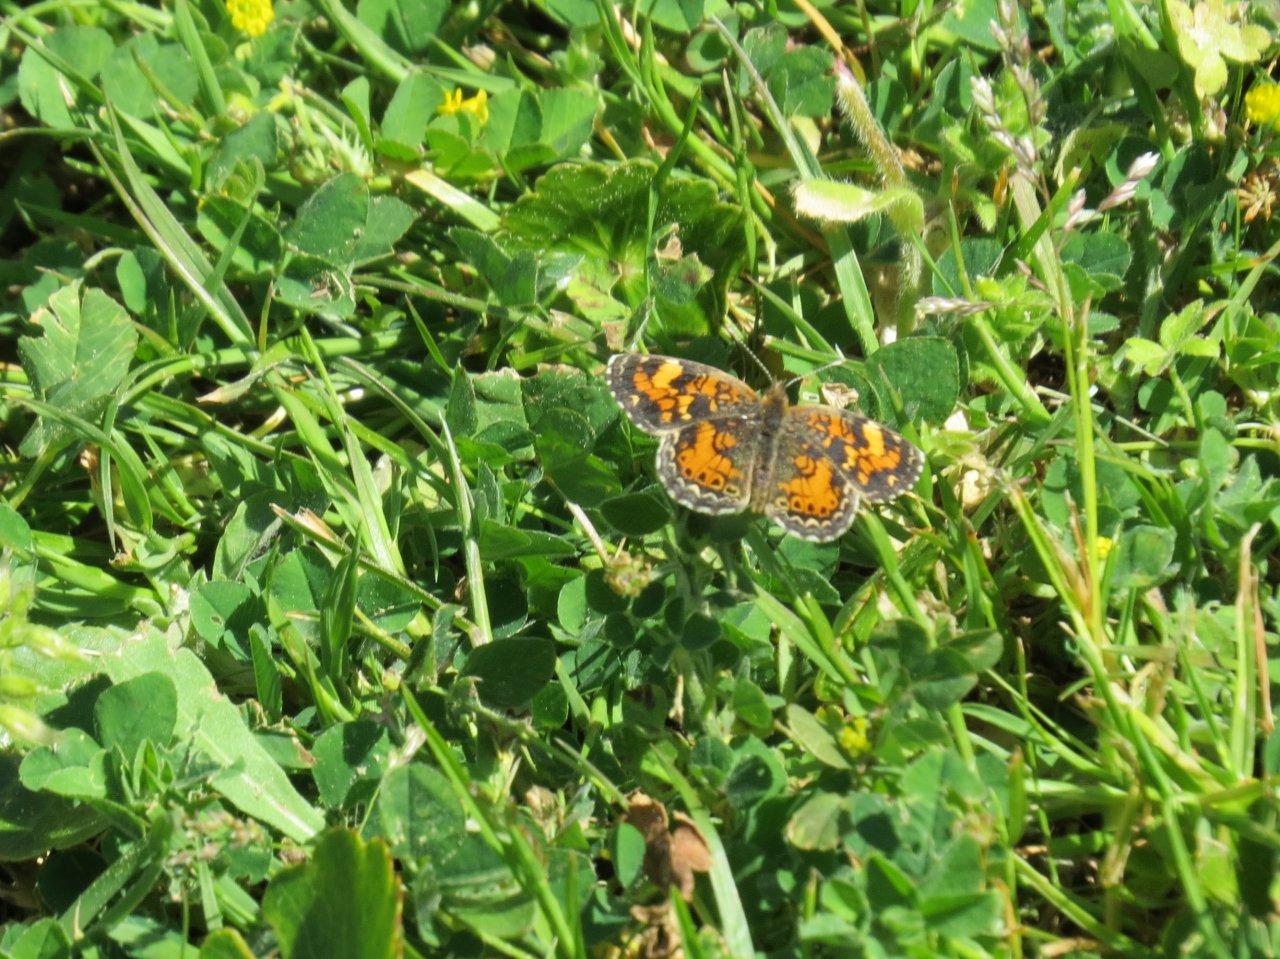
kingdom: Animalia
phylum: Arthropoda
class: Insecta
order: Lepidoptera
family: Nymphalidae
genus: Phyciodes
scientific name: Phyciodes phaon
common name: Phaon Crescent
